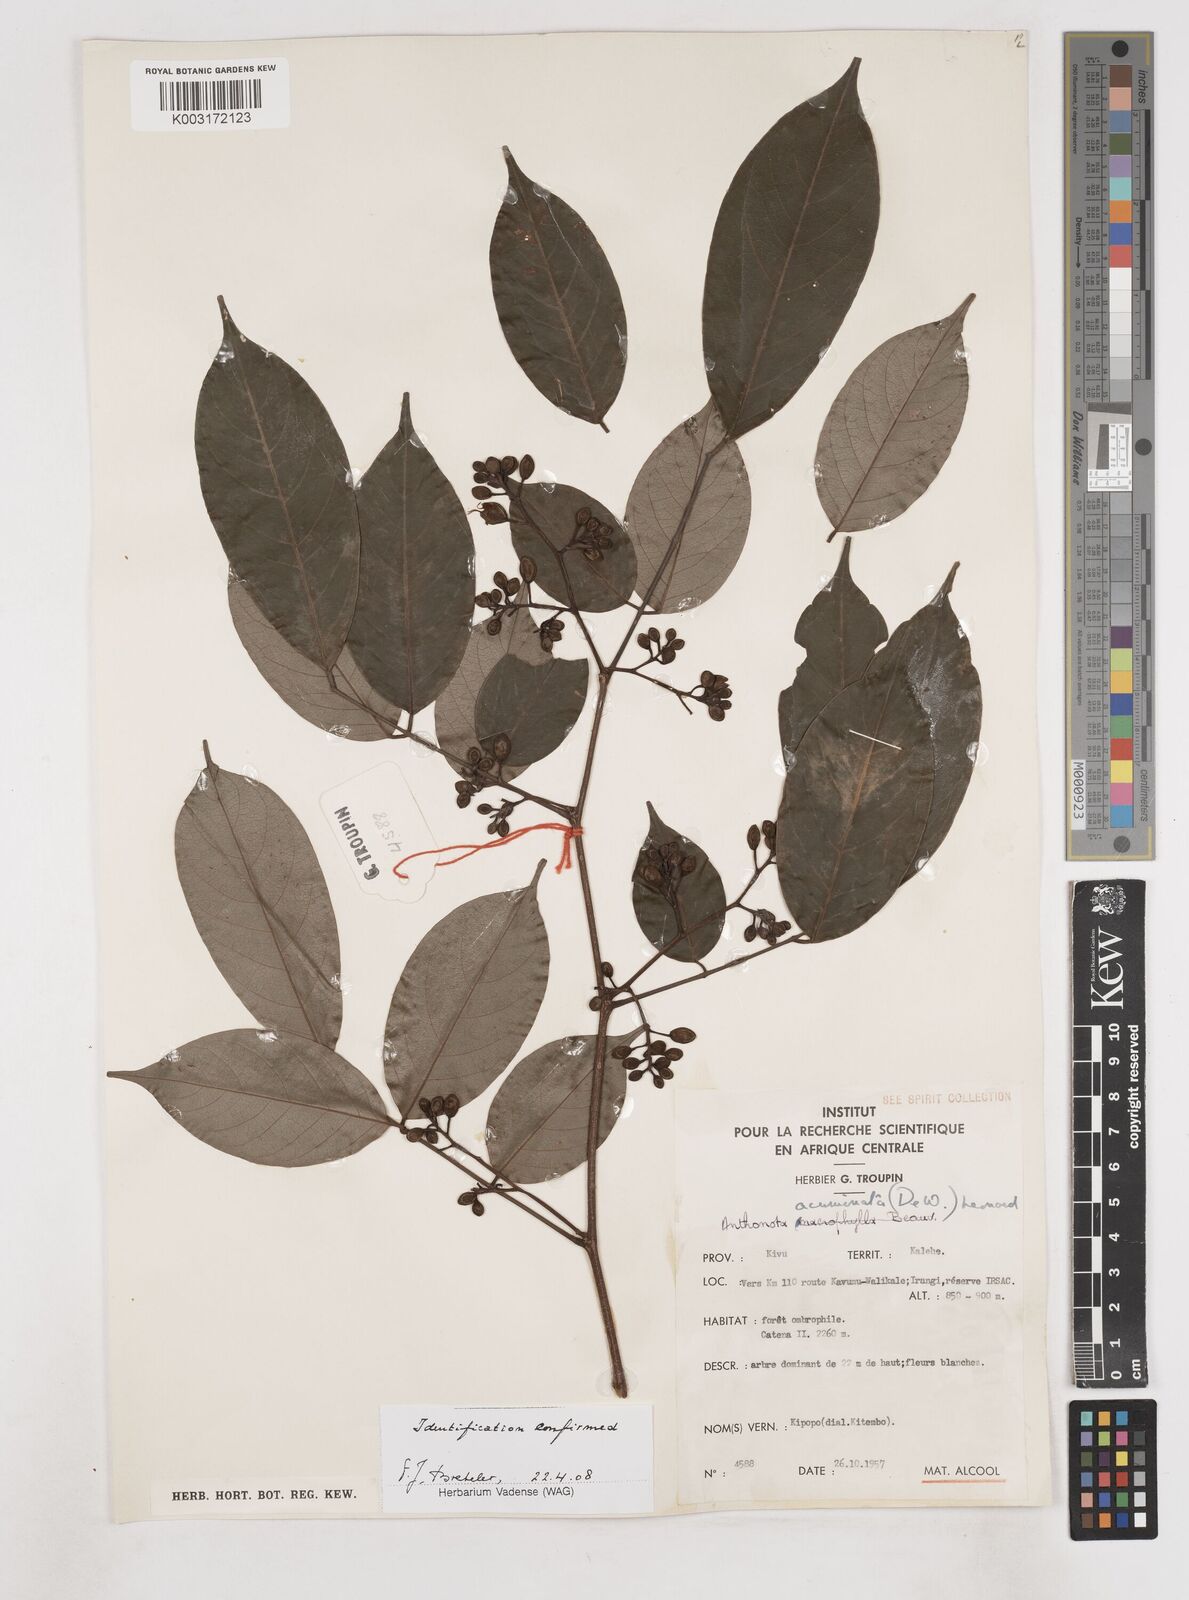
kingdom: Plantae
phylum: Tracheophyta
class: Magnoliopsida
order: Fabales
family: Fabaceae
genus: Anthonotha
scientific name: Anthonotha acuminata
